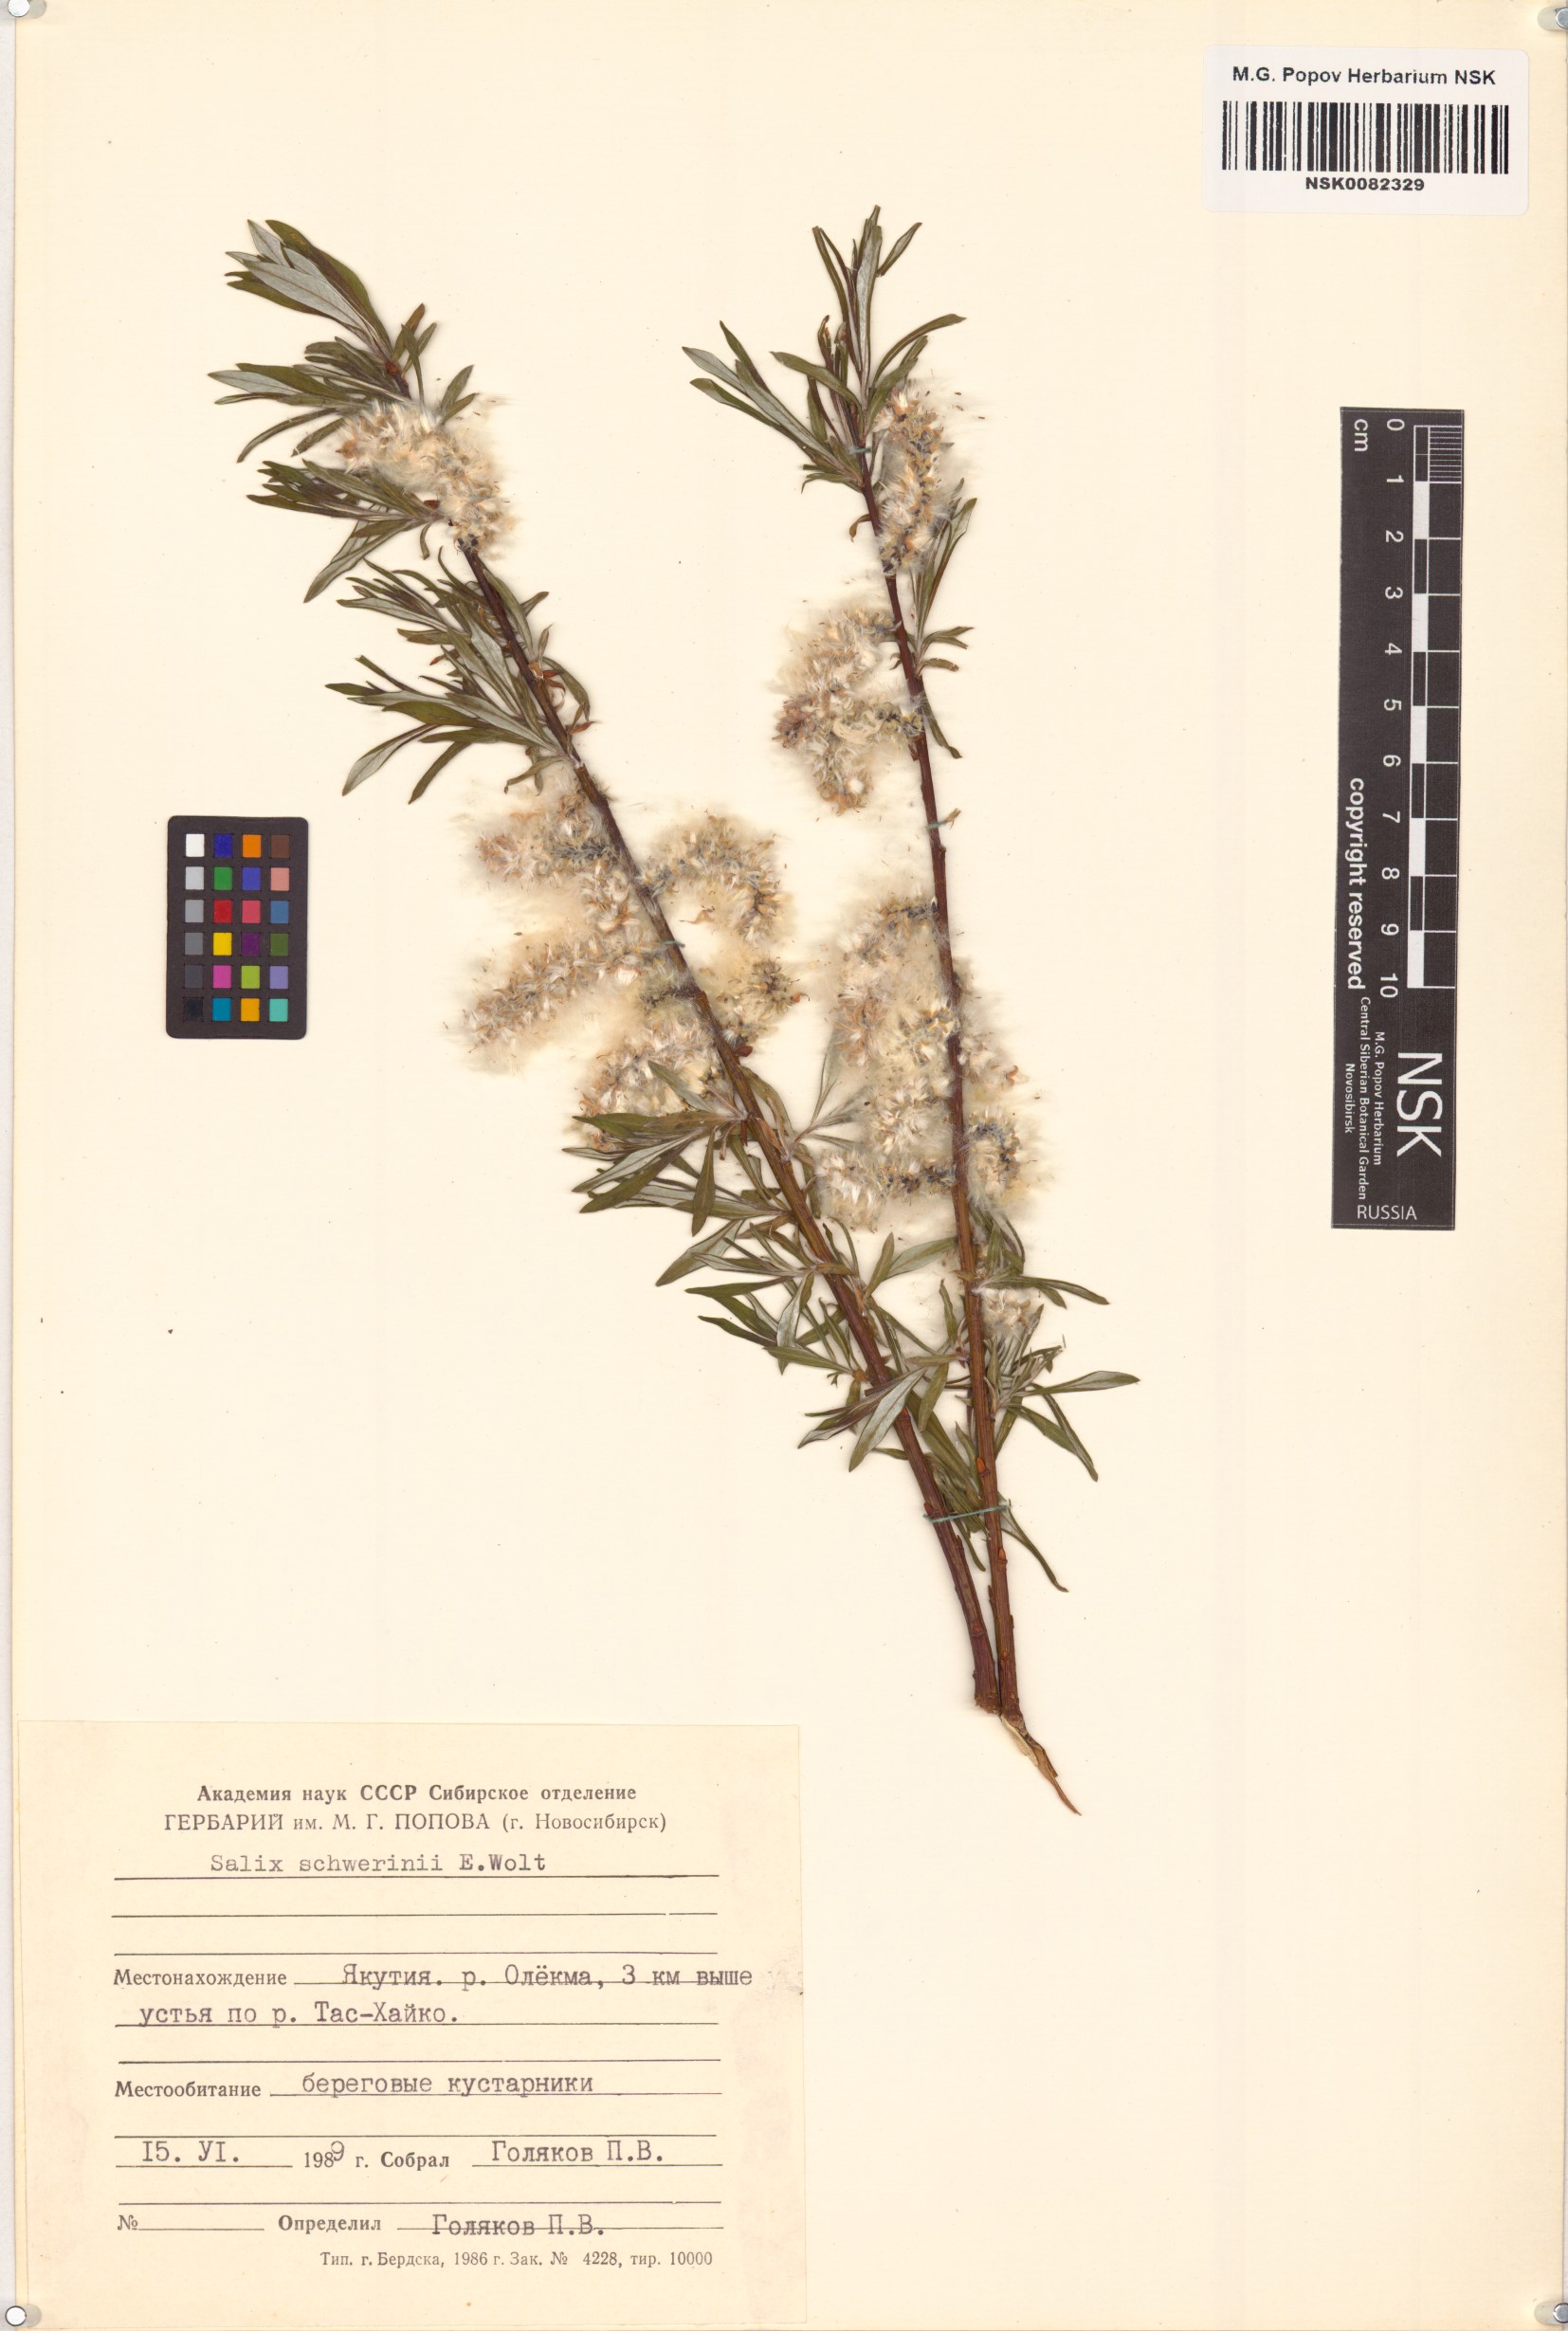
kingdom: Plantae
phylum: Tracheophyta
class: Magnoliopsida
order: Malpighiales
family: Salicaceae
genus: Salix
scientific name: Salix schwerinii
